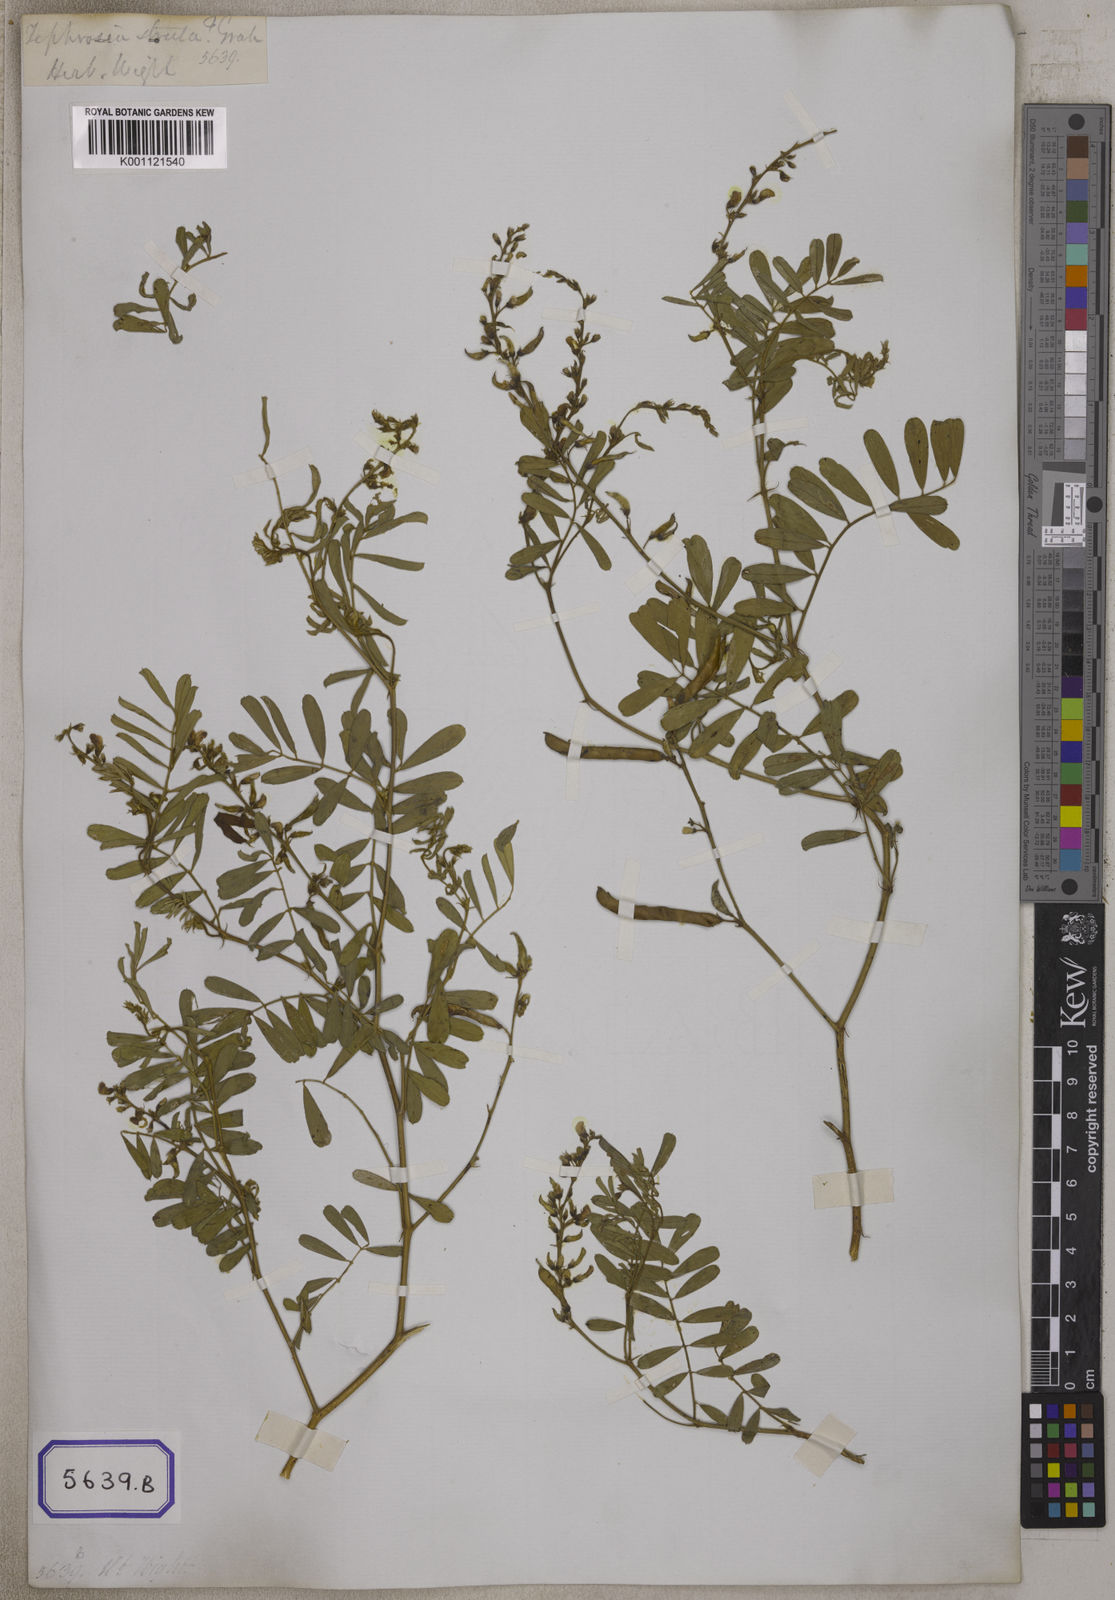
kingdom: Plantae
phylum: Tracheophyta
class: Magnoliopsida
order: Fabales
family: Fabaceae
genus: Tephrosia
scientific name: Tephrosia purpurea
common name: Fishpoison
